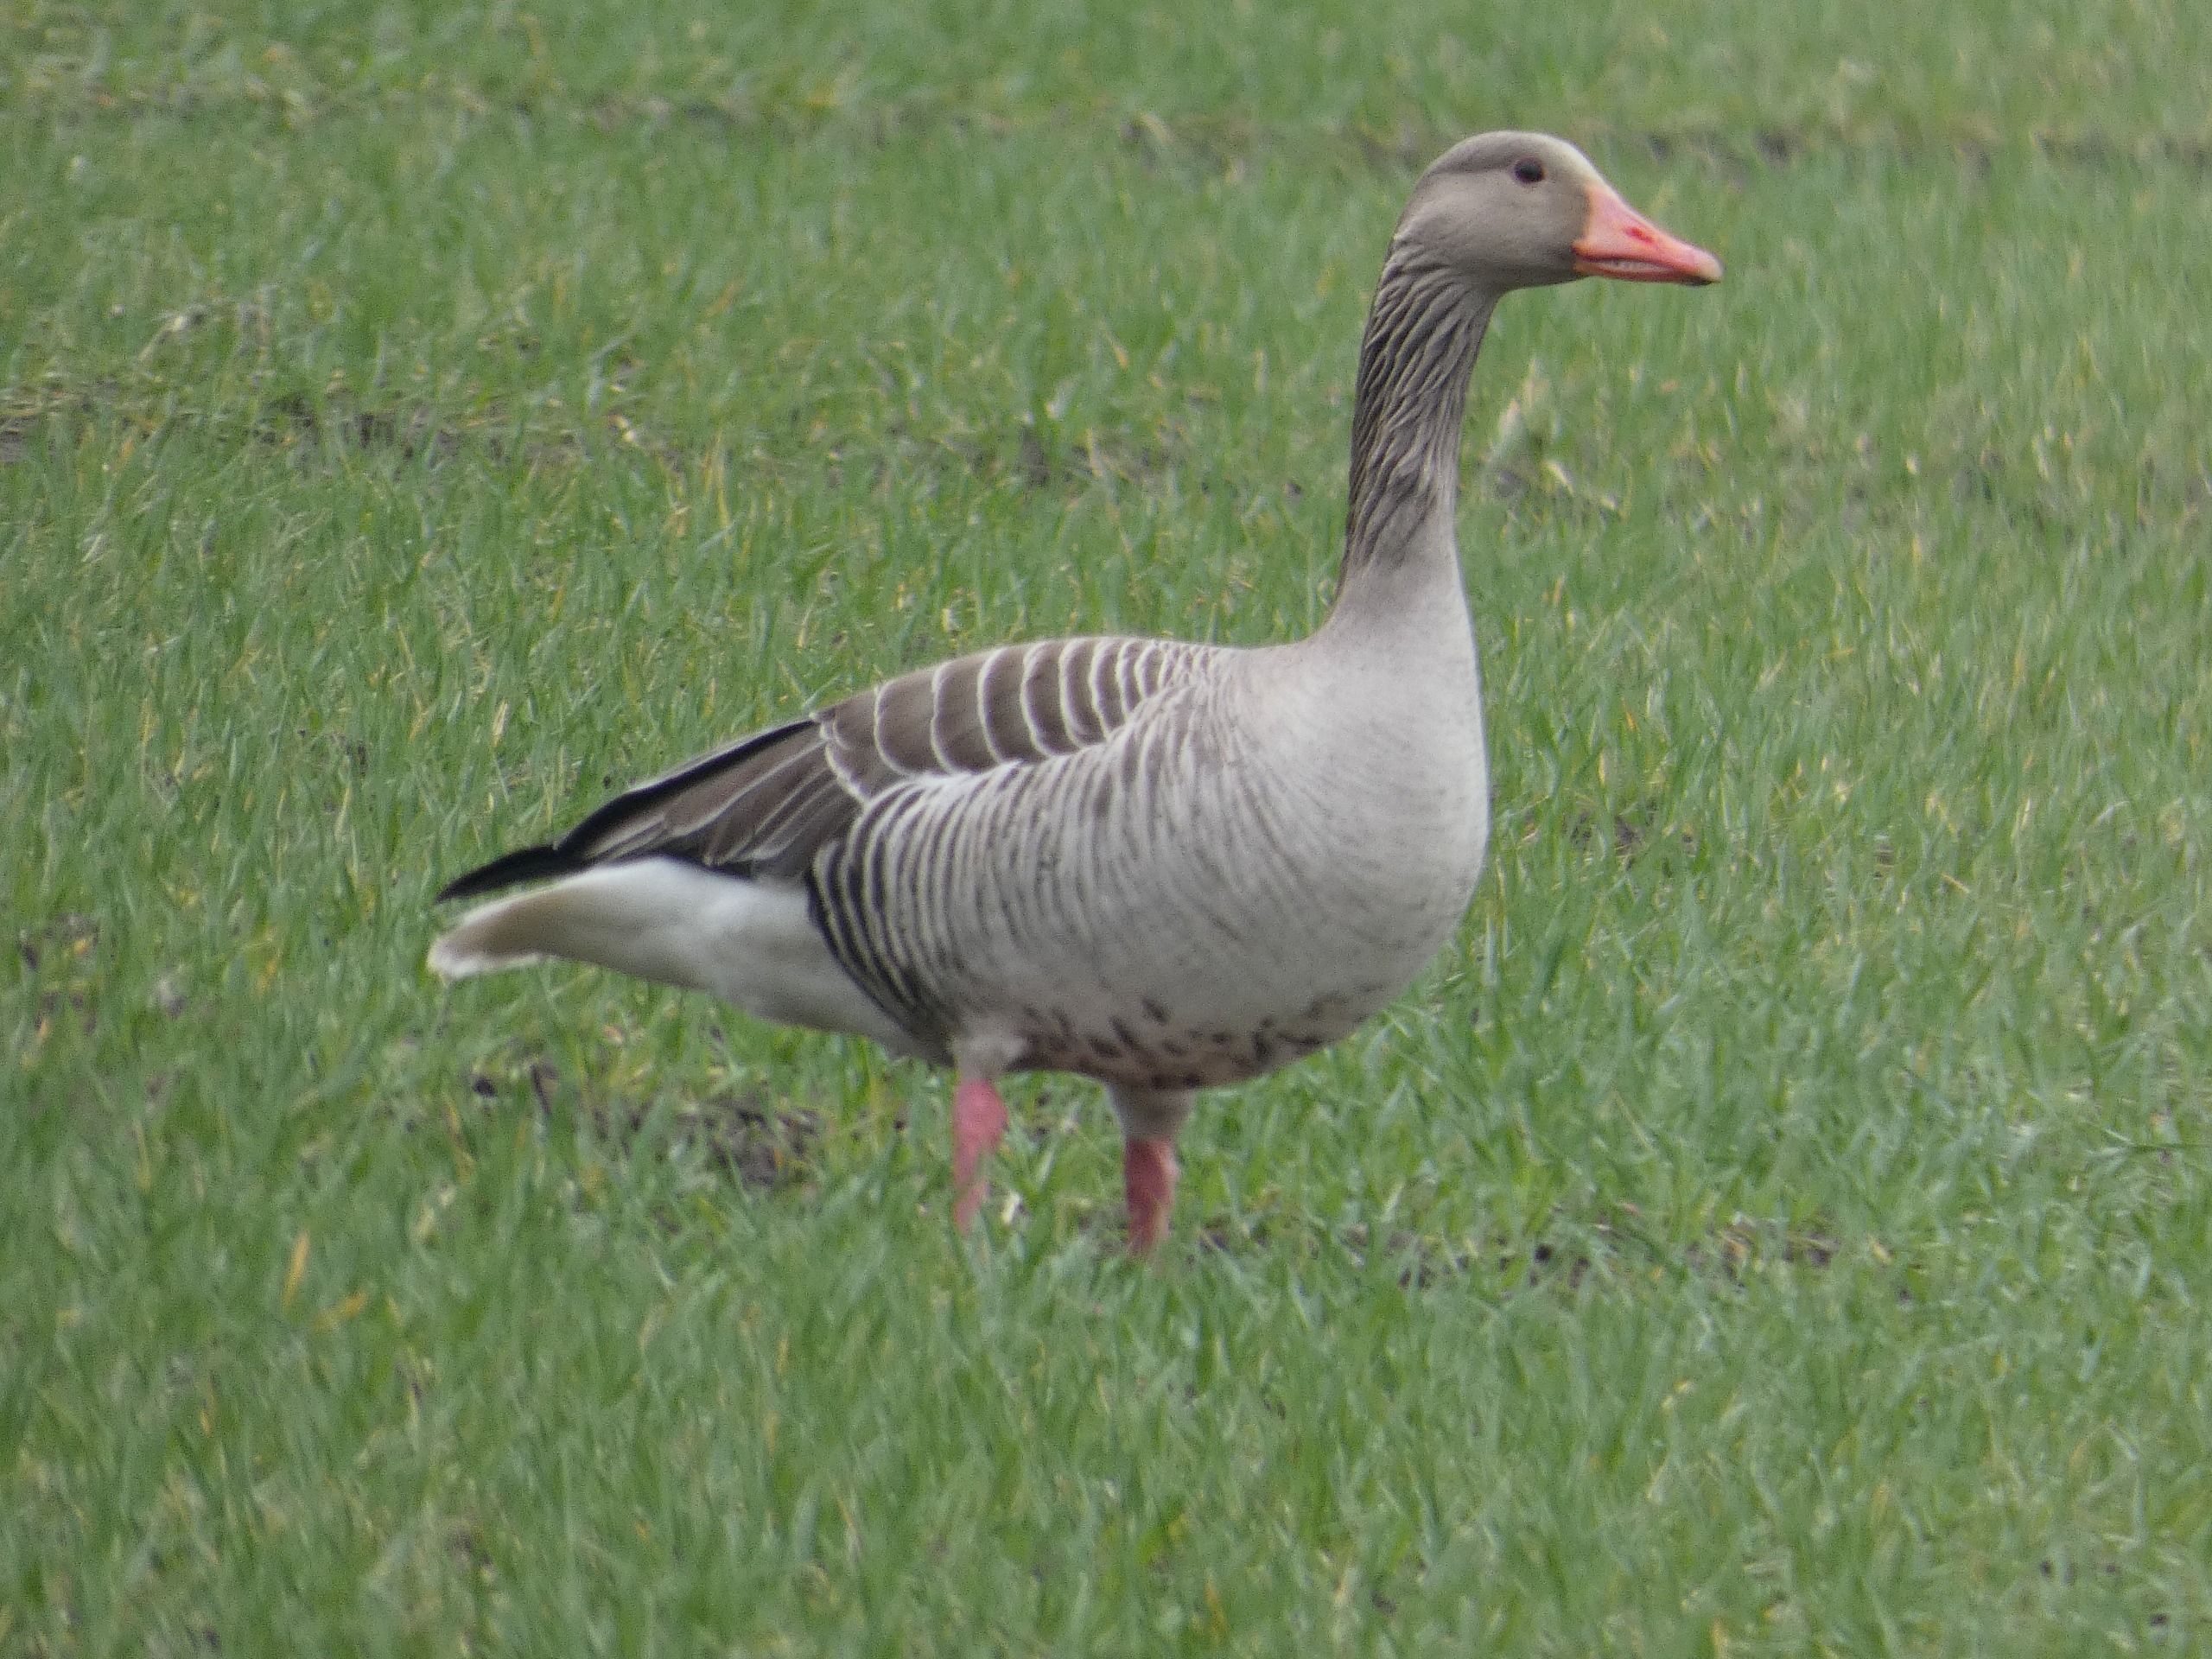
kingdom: Animalia
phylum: Chordata
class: Aves
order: Anseriformes
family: Anatidae
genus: Anser
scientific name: Anser anser
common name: Grågås
